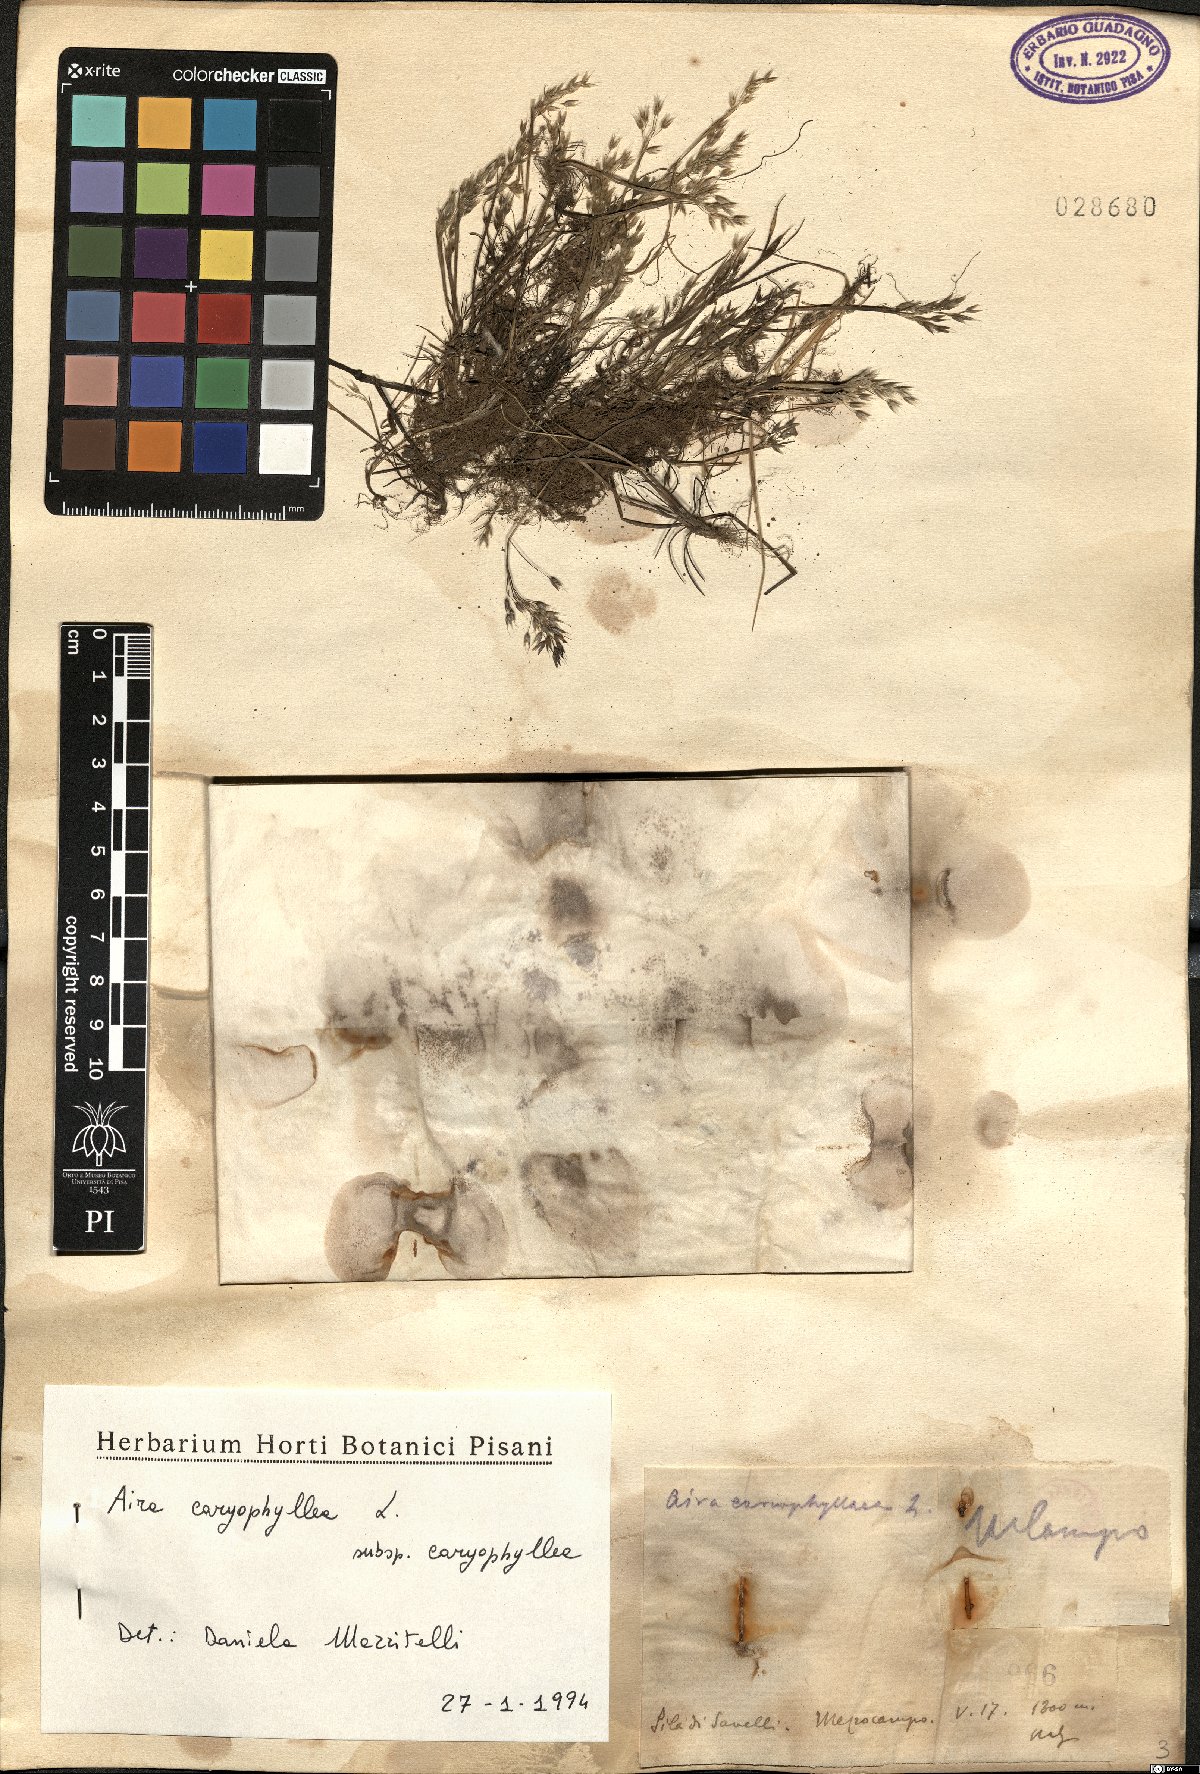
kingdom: Plantae
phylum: Tracheophyta
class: Liliopsida
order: Poales
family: Poaceae
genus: Aira
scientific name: Aira caryophyllea
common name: Silver hairgrass
